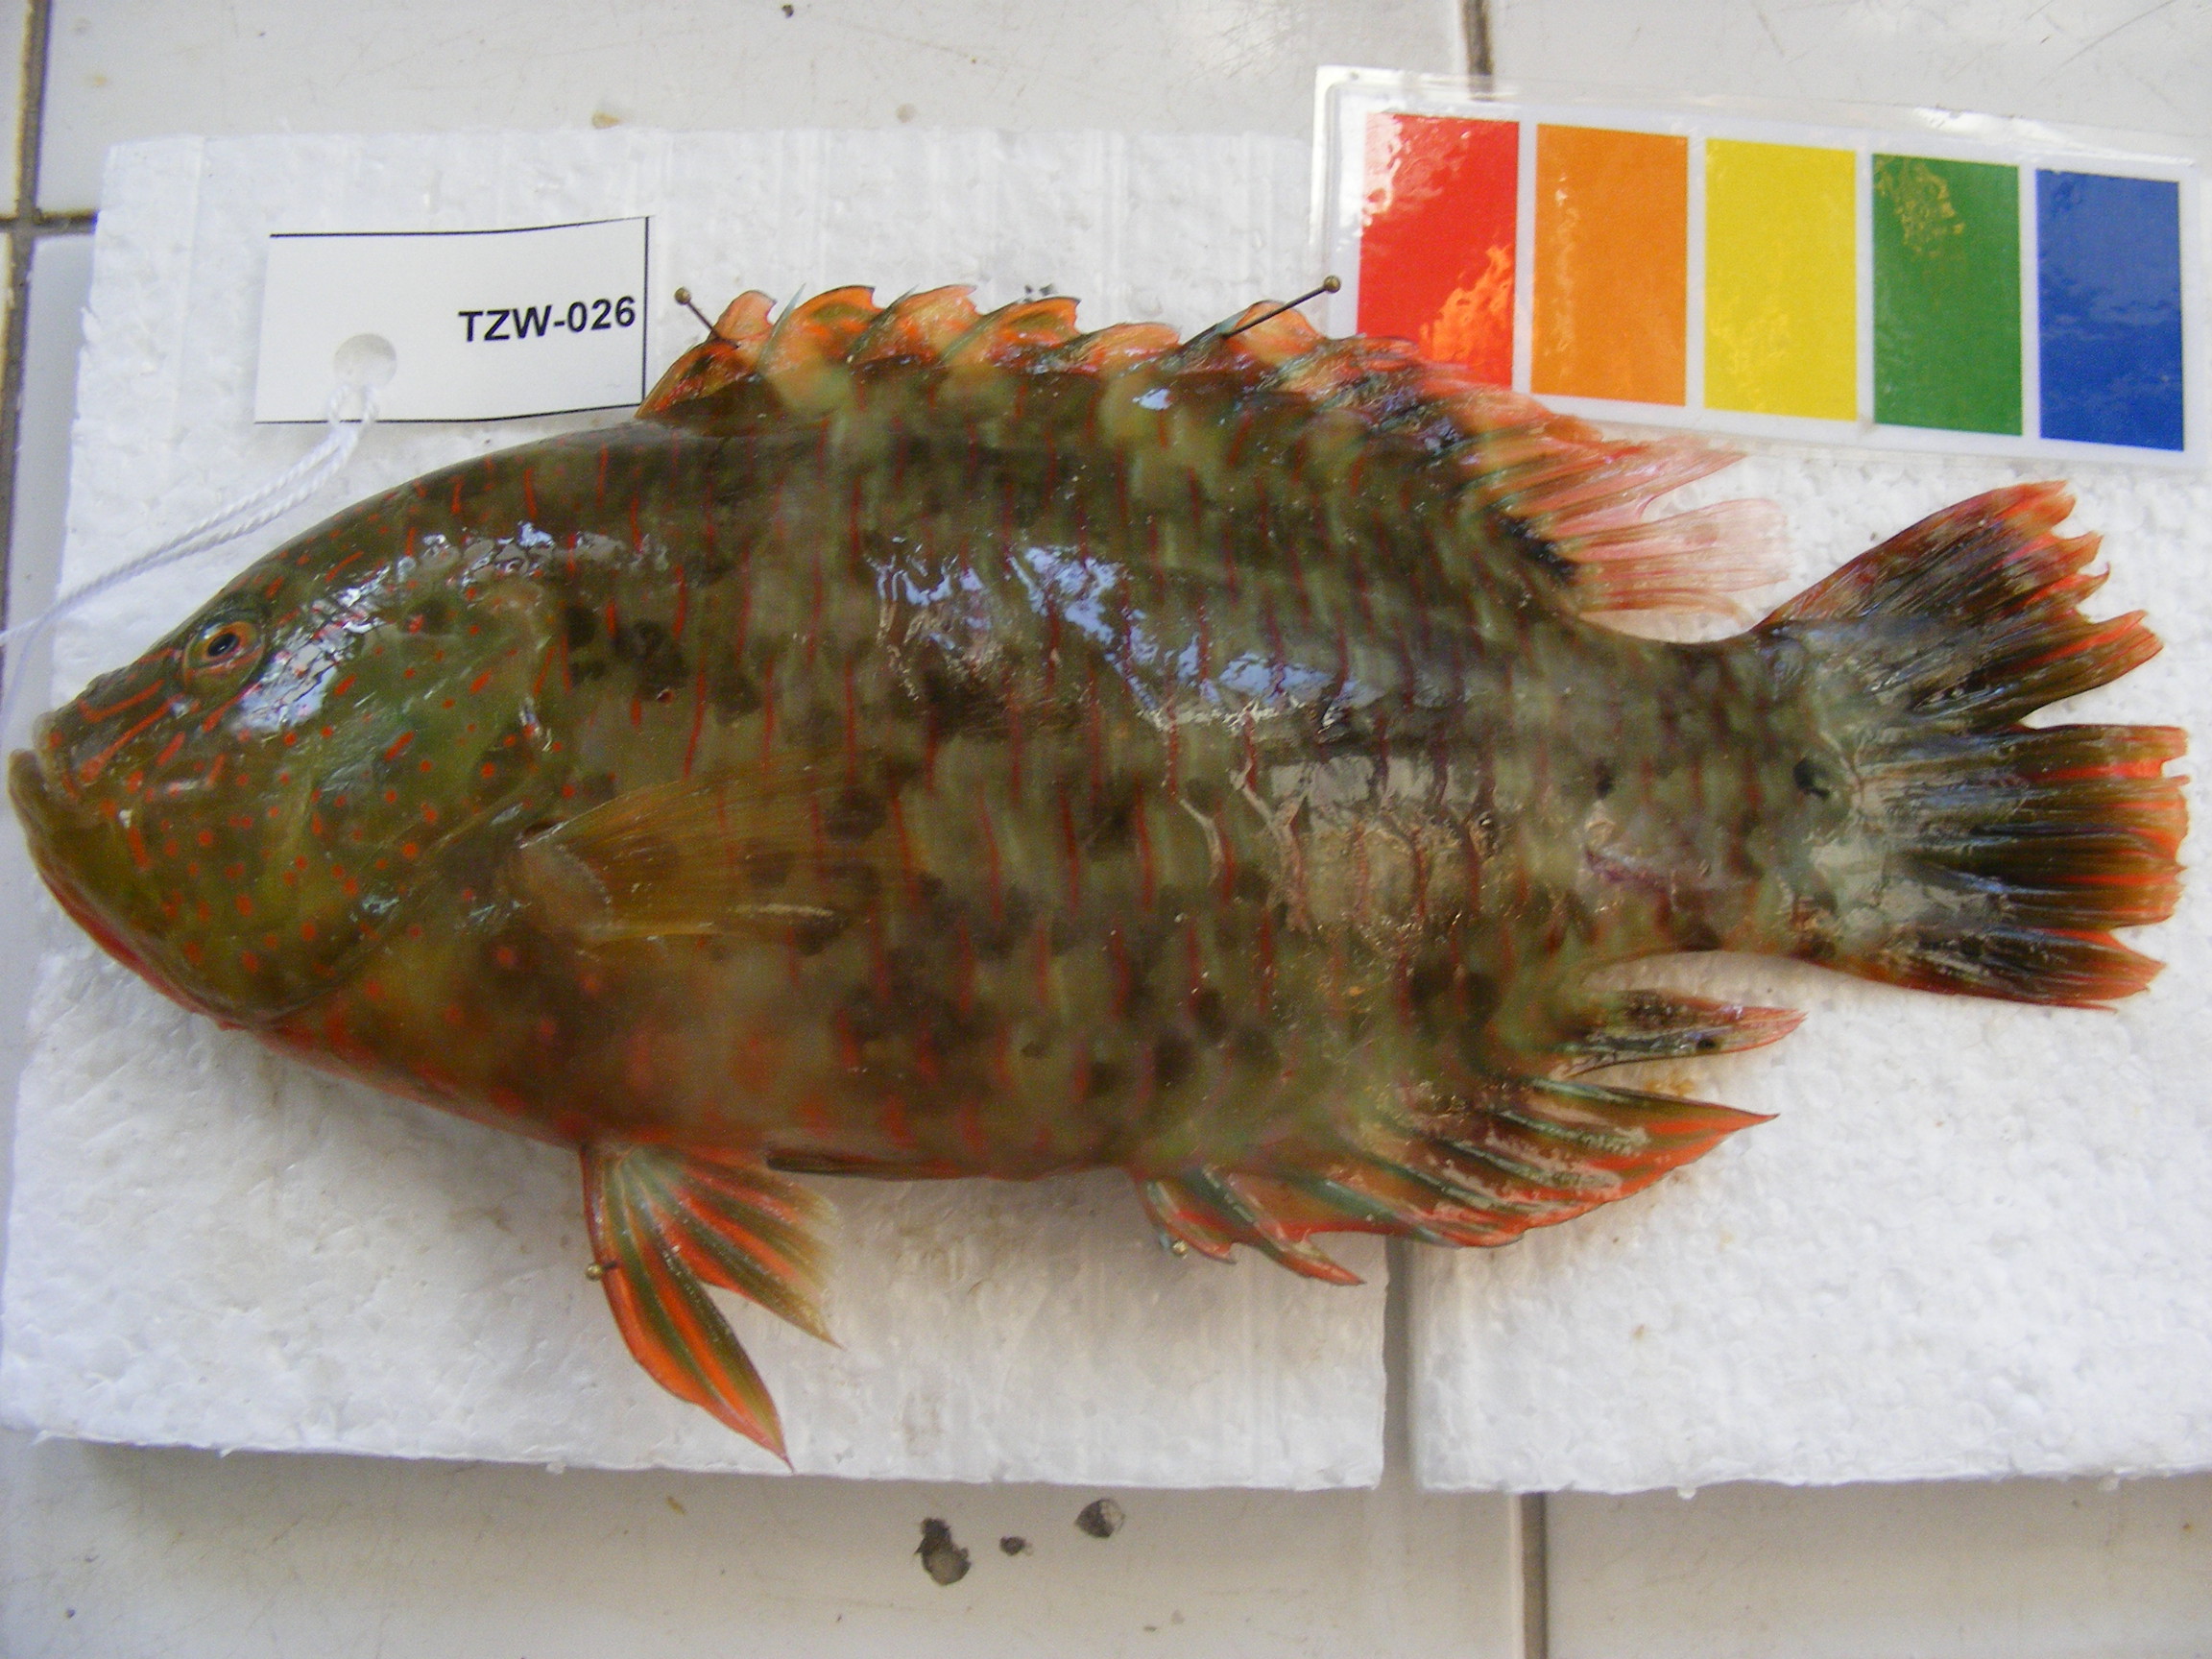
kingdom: Animalia
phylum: Chordata
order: Perciformes
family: Labridae
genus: Cheilinus
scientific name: Cheilinus trilobatus
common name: Tripletail maori wrasse
